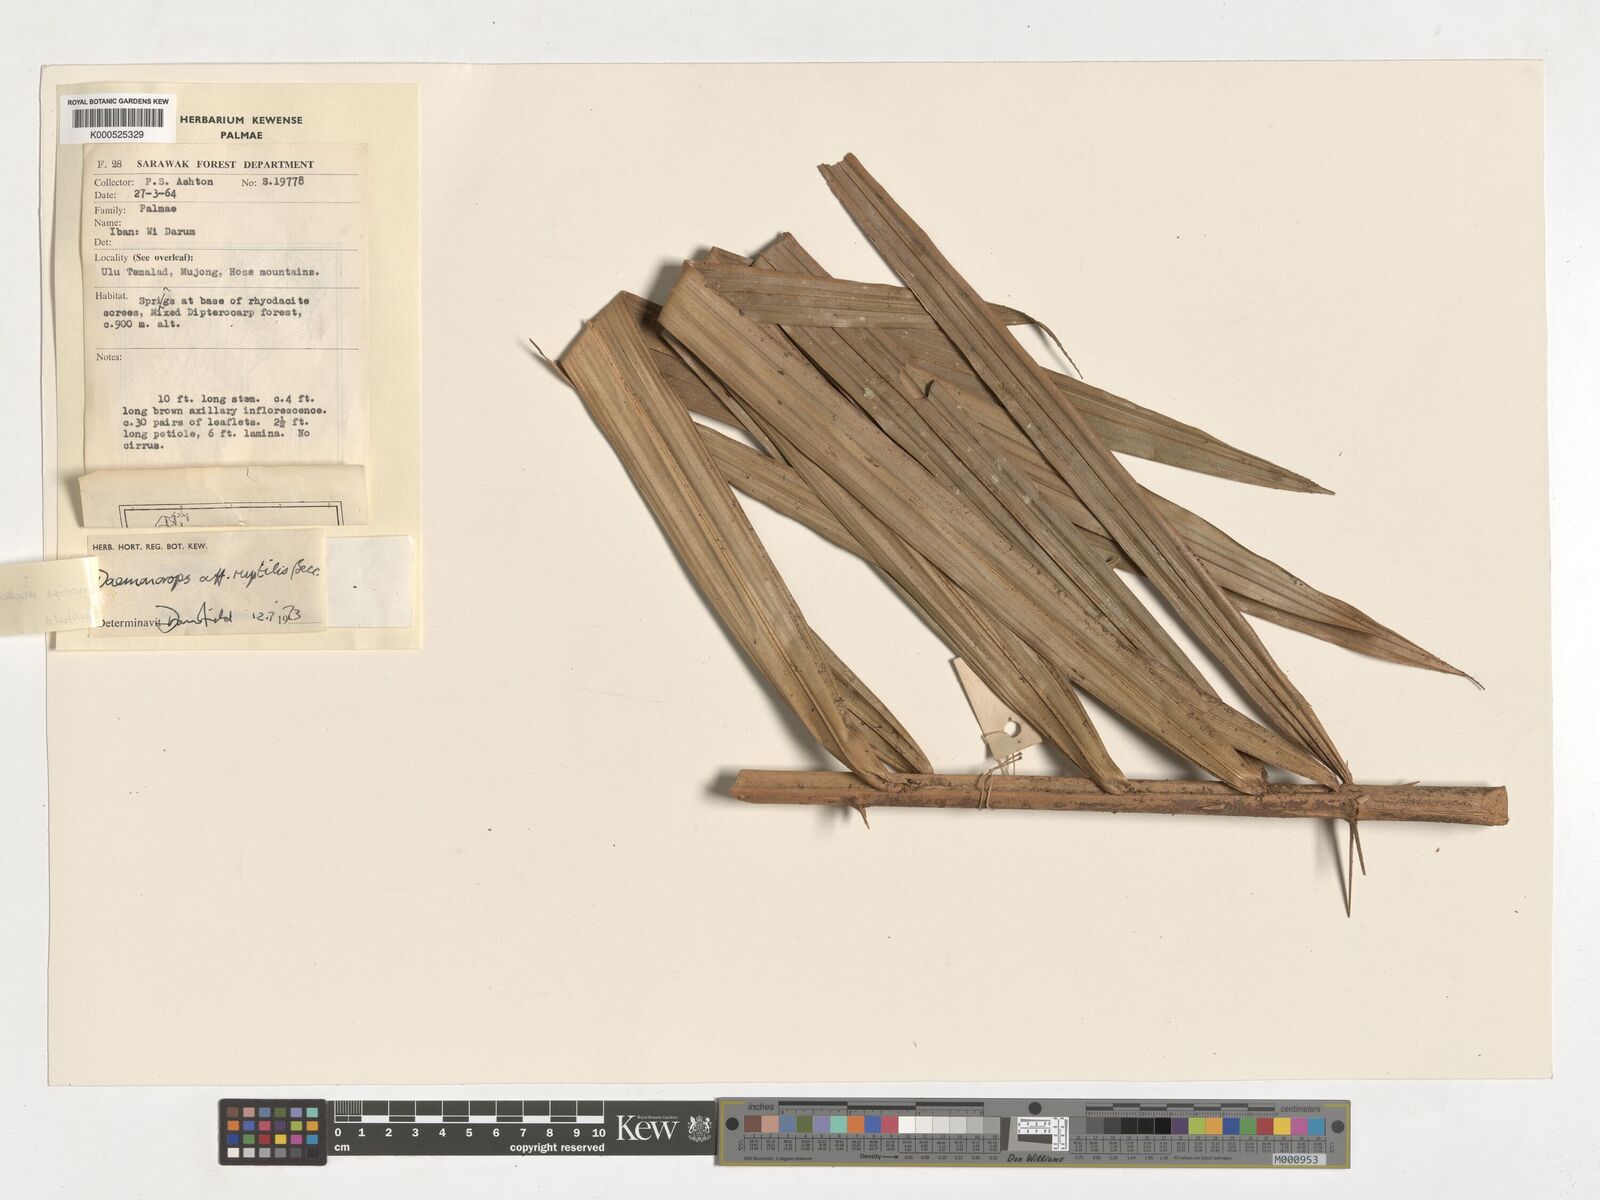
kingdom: Plantae
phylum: Tracheophyta
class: Liliopsida
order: Arecales
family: Arecaceae
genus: Calamus
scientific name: Calamus ingens
